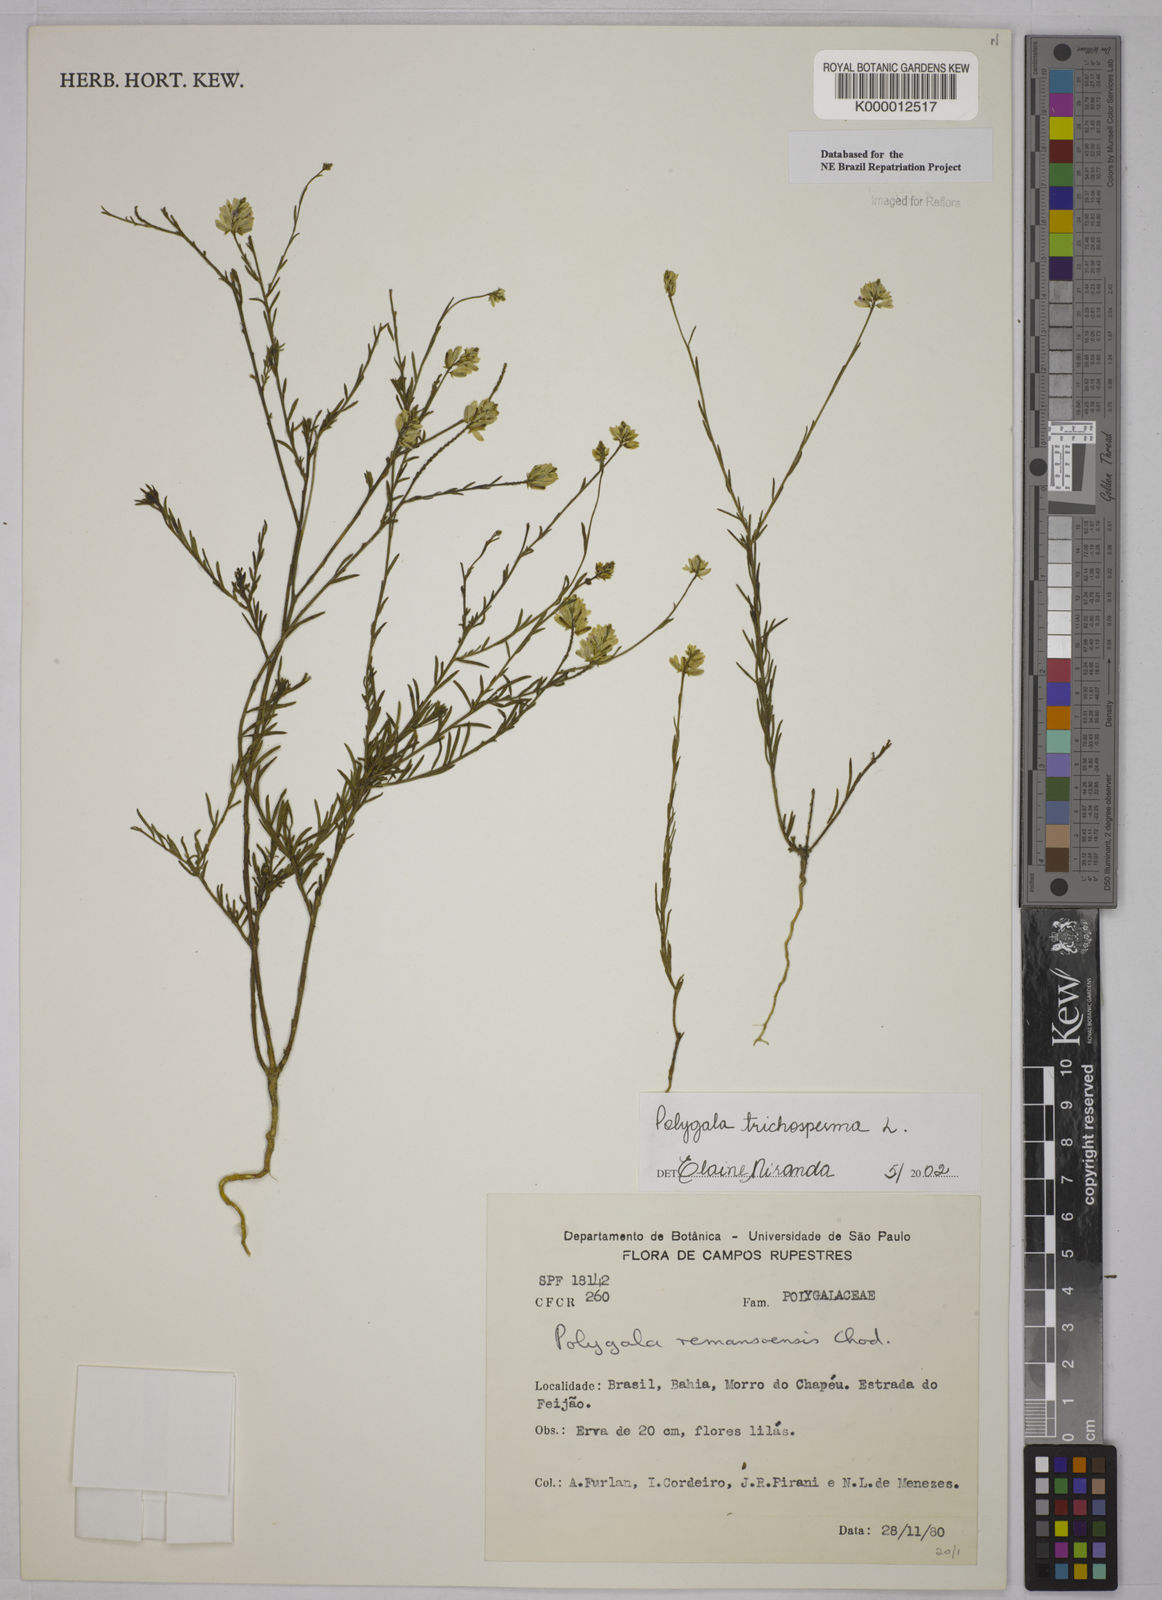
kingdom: Plantae
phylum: Tracheophyta
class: Magnoliopsida
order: Fabales
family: Polygalaceae
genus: Polygala
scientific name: Polygala
